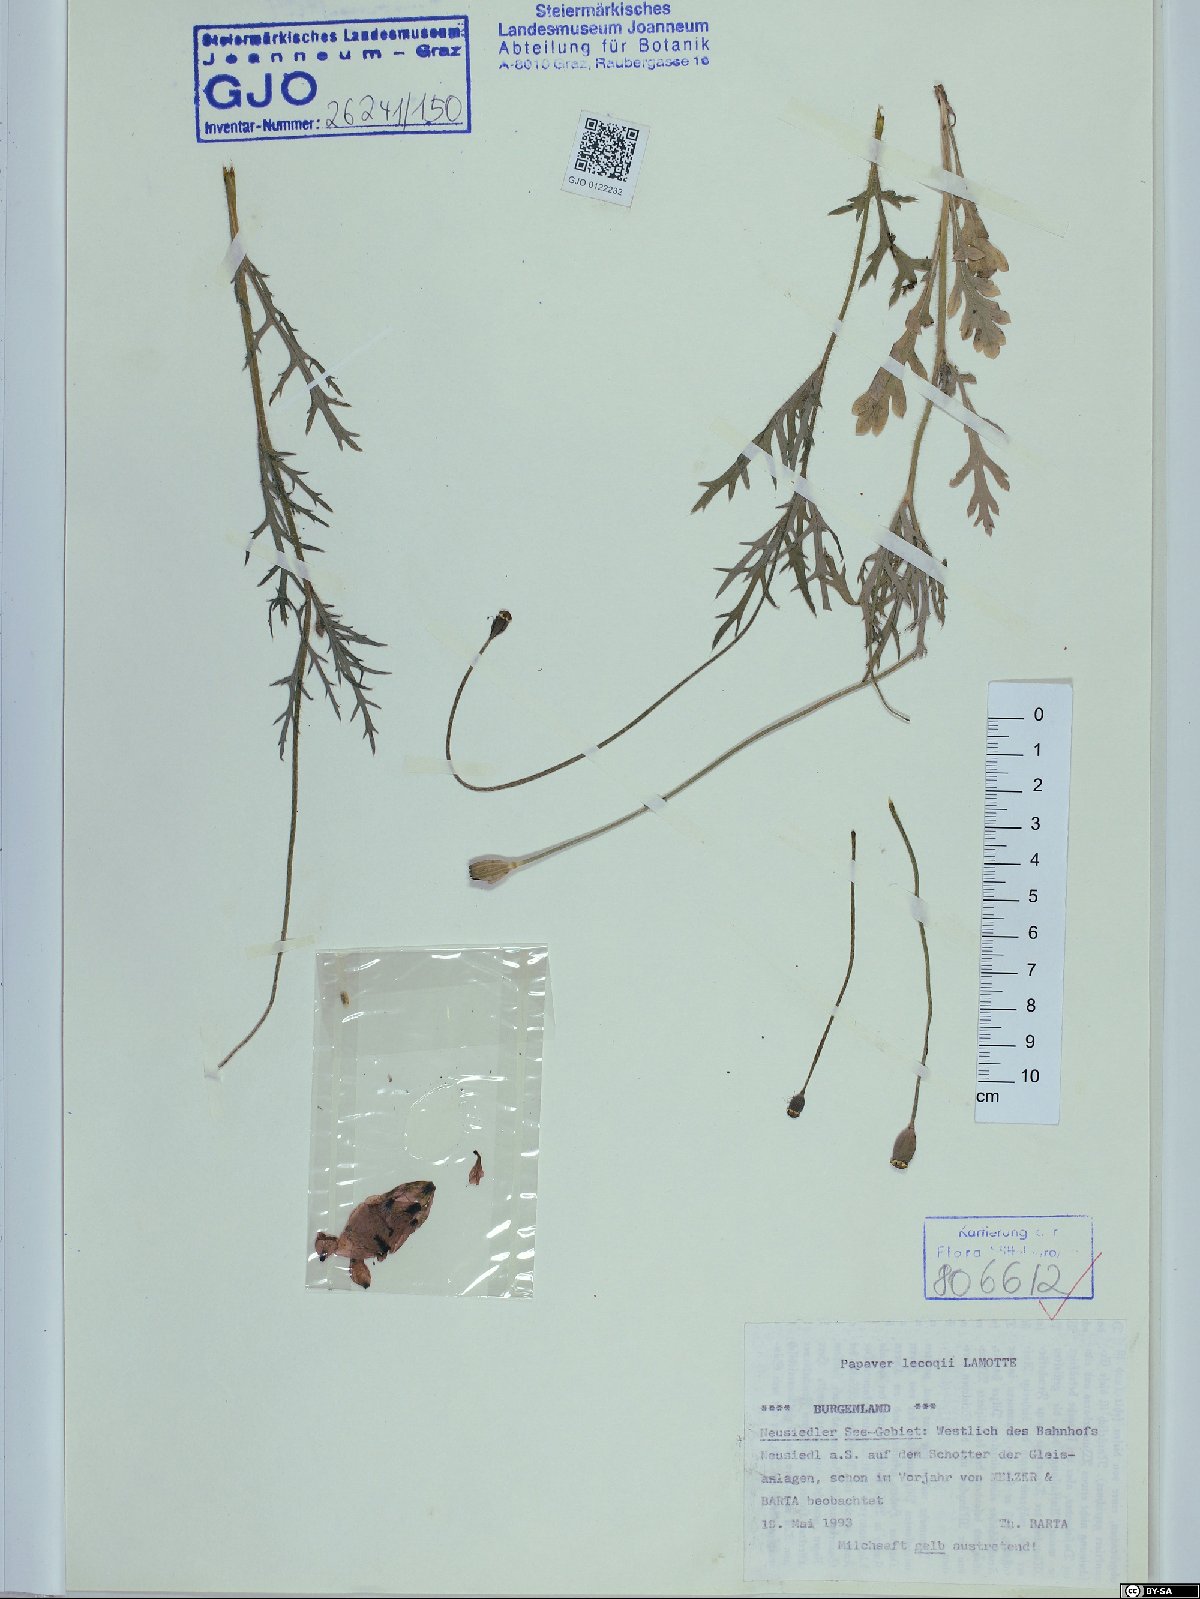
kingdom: Plantae
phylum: Tracheophyta
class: Magnoliopsida
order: Ranunculales
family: Papaveraceae
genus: Papaver
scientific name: Papaver lecoqii
